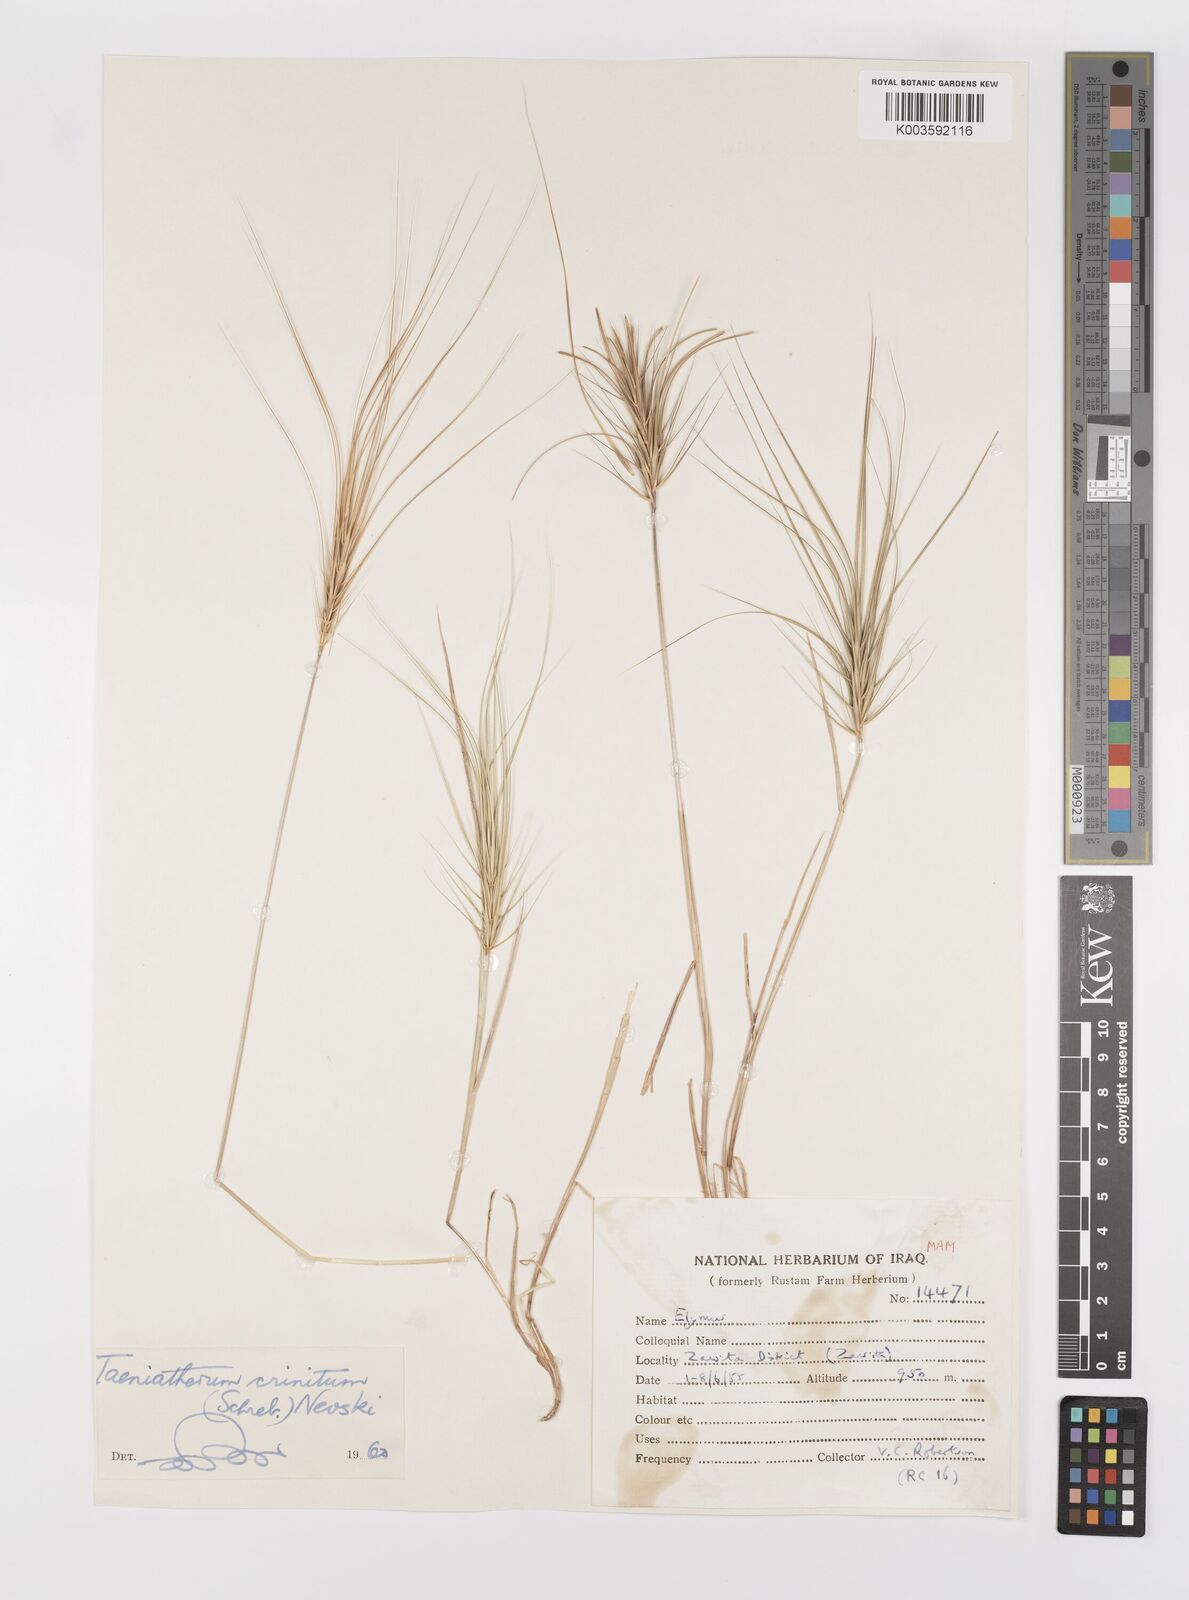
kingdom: Plantae
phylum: Tracheophyta
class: Liliopsida
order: Poales
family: Poaceae
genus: Taeniatherum
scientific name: Taeniatherum caput-medusae
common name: Medusahead
